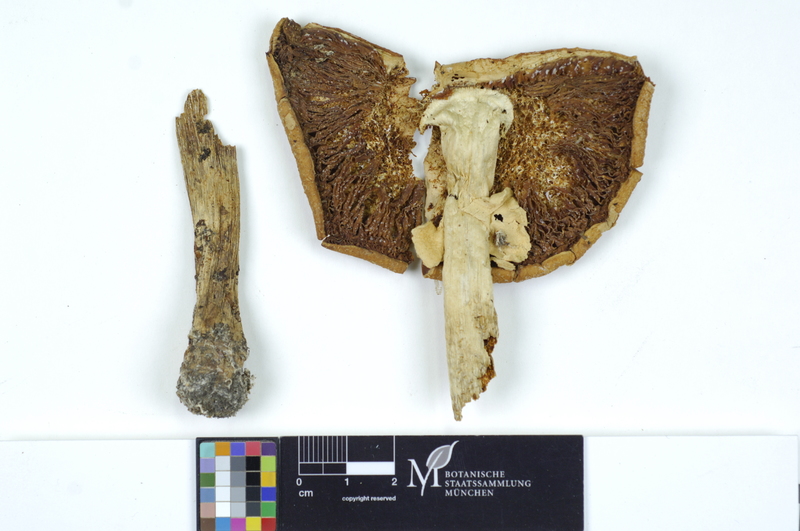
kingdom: Fungi
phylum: Basidiomycota
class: Agaricomycetes
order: Agaricales
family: Amanitaceae
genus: Limacellopsis
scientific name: Limacellopsis guttata
